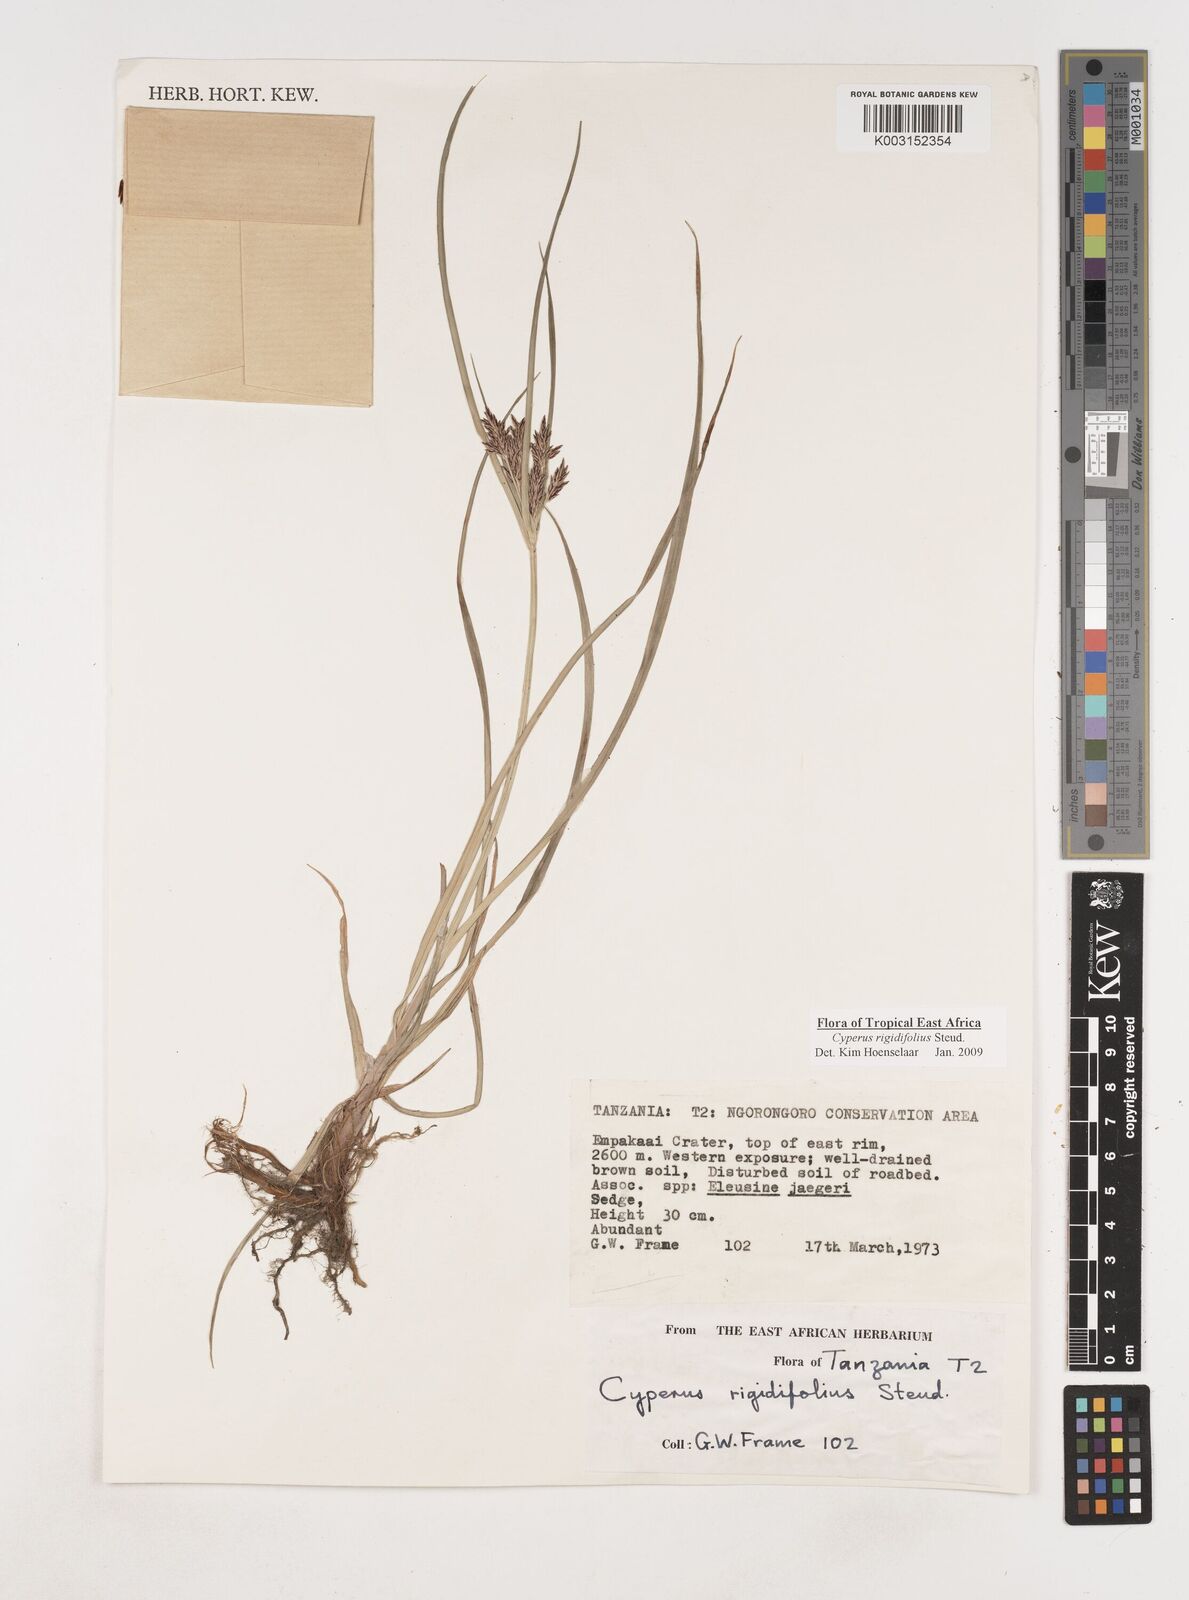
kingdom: Plantae
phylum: Tracheophyta
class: Liliopsida
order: Poales
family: Cyperaceae
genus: Cyperus
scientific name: Cyperus rigidifolius
